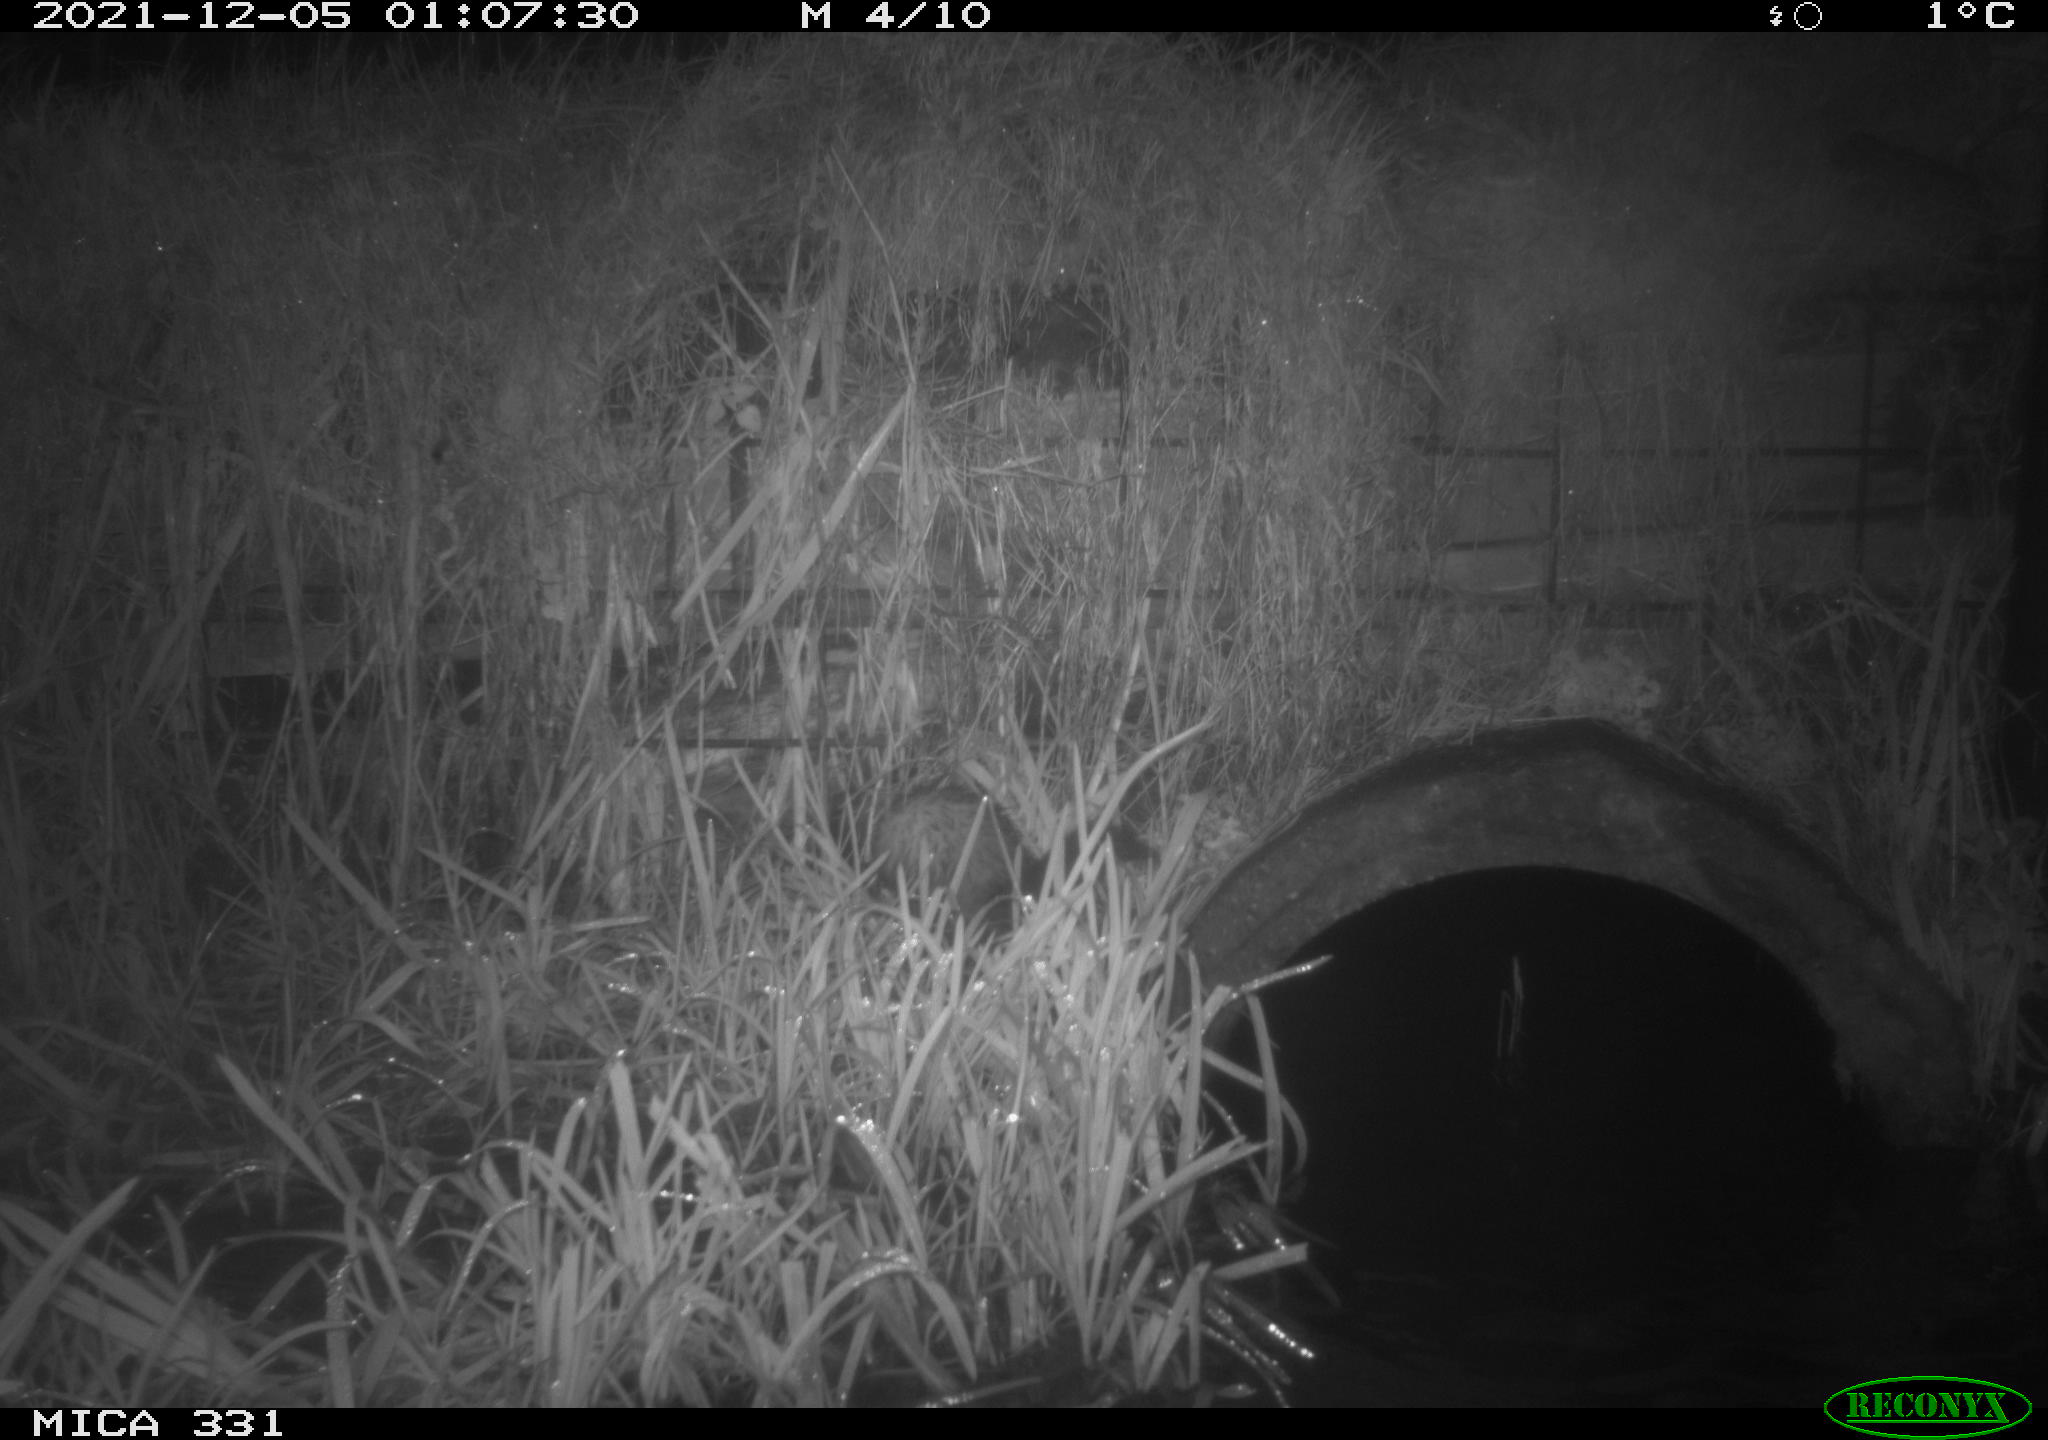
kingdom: Animalia
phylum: Chordata
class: Mammalia
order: Carnivora
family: Mustelidae
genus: Mustela
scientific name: Mustela putorius
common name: European polecat
